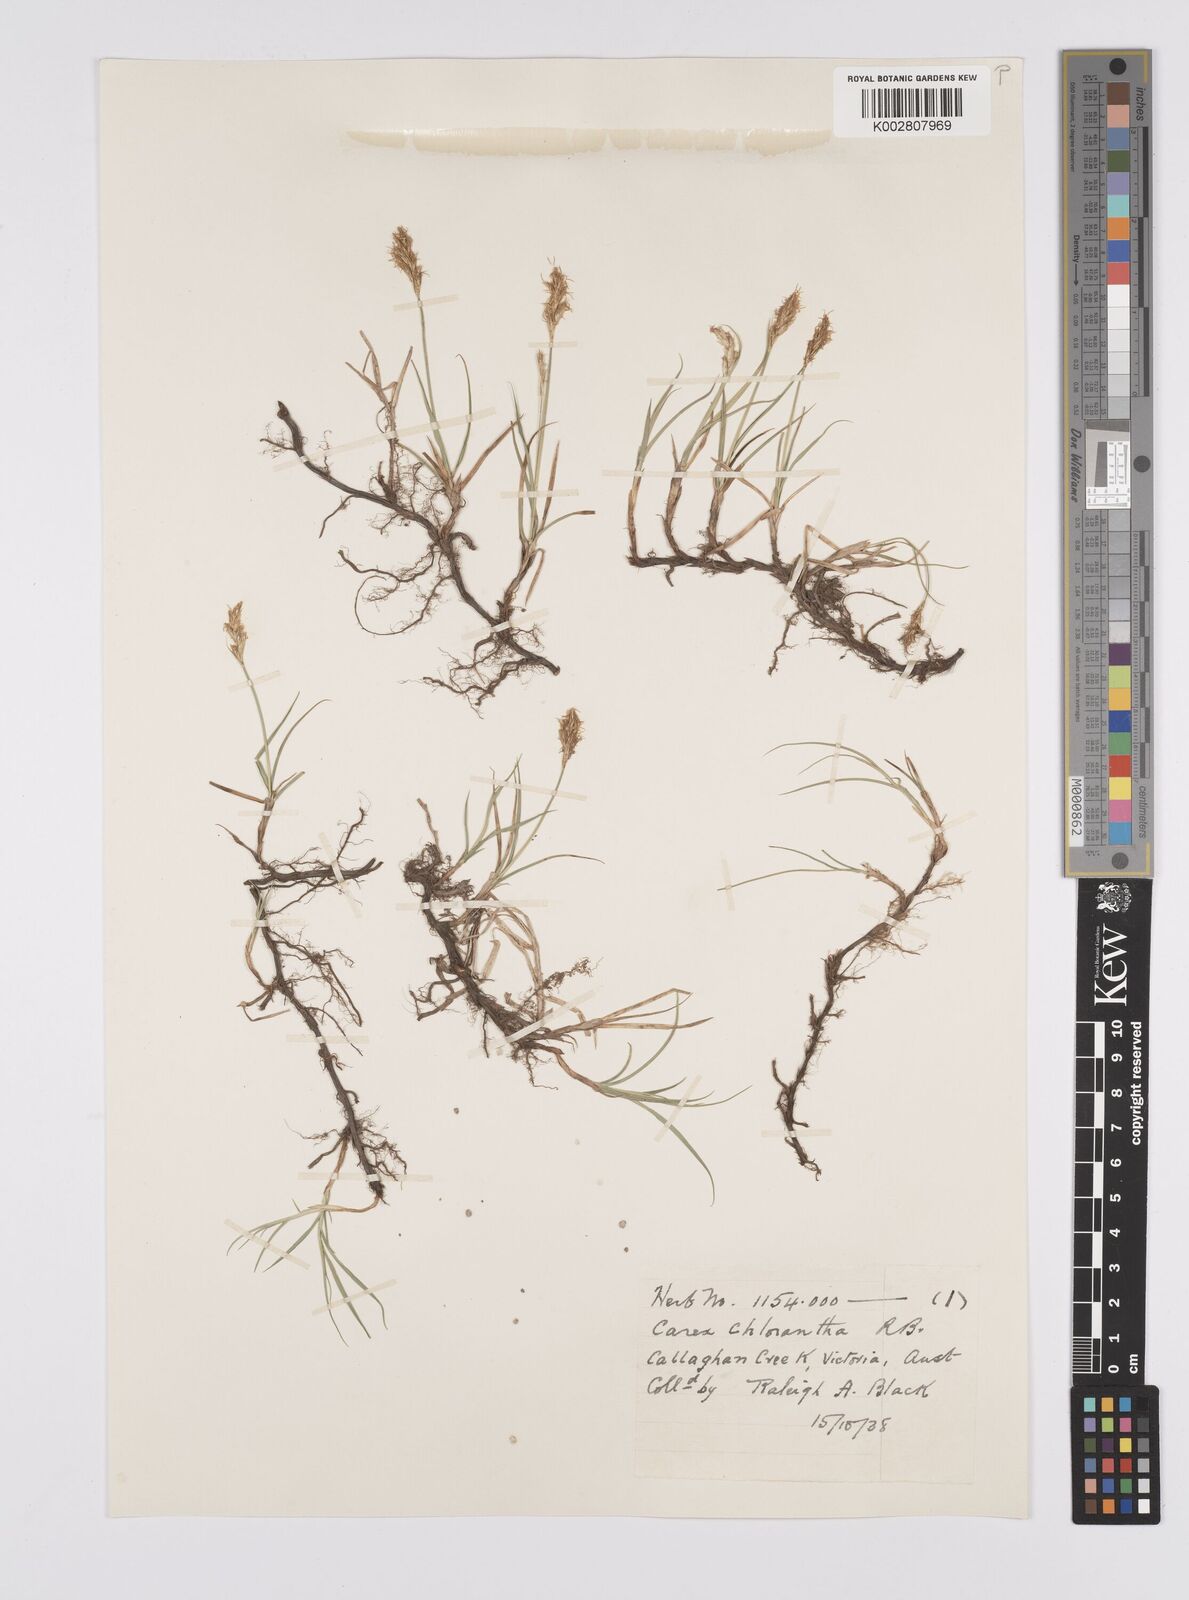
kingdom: Plantae
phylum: Tracheophyta
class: Liliopsida
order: Poales
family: Cyperaceae
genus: Carex
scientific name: Carex chlorantha
